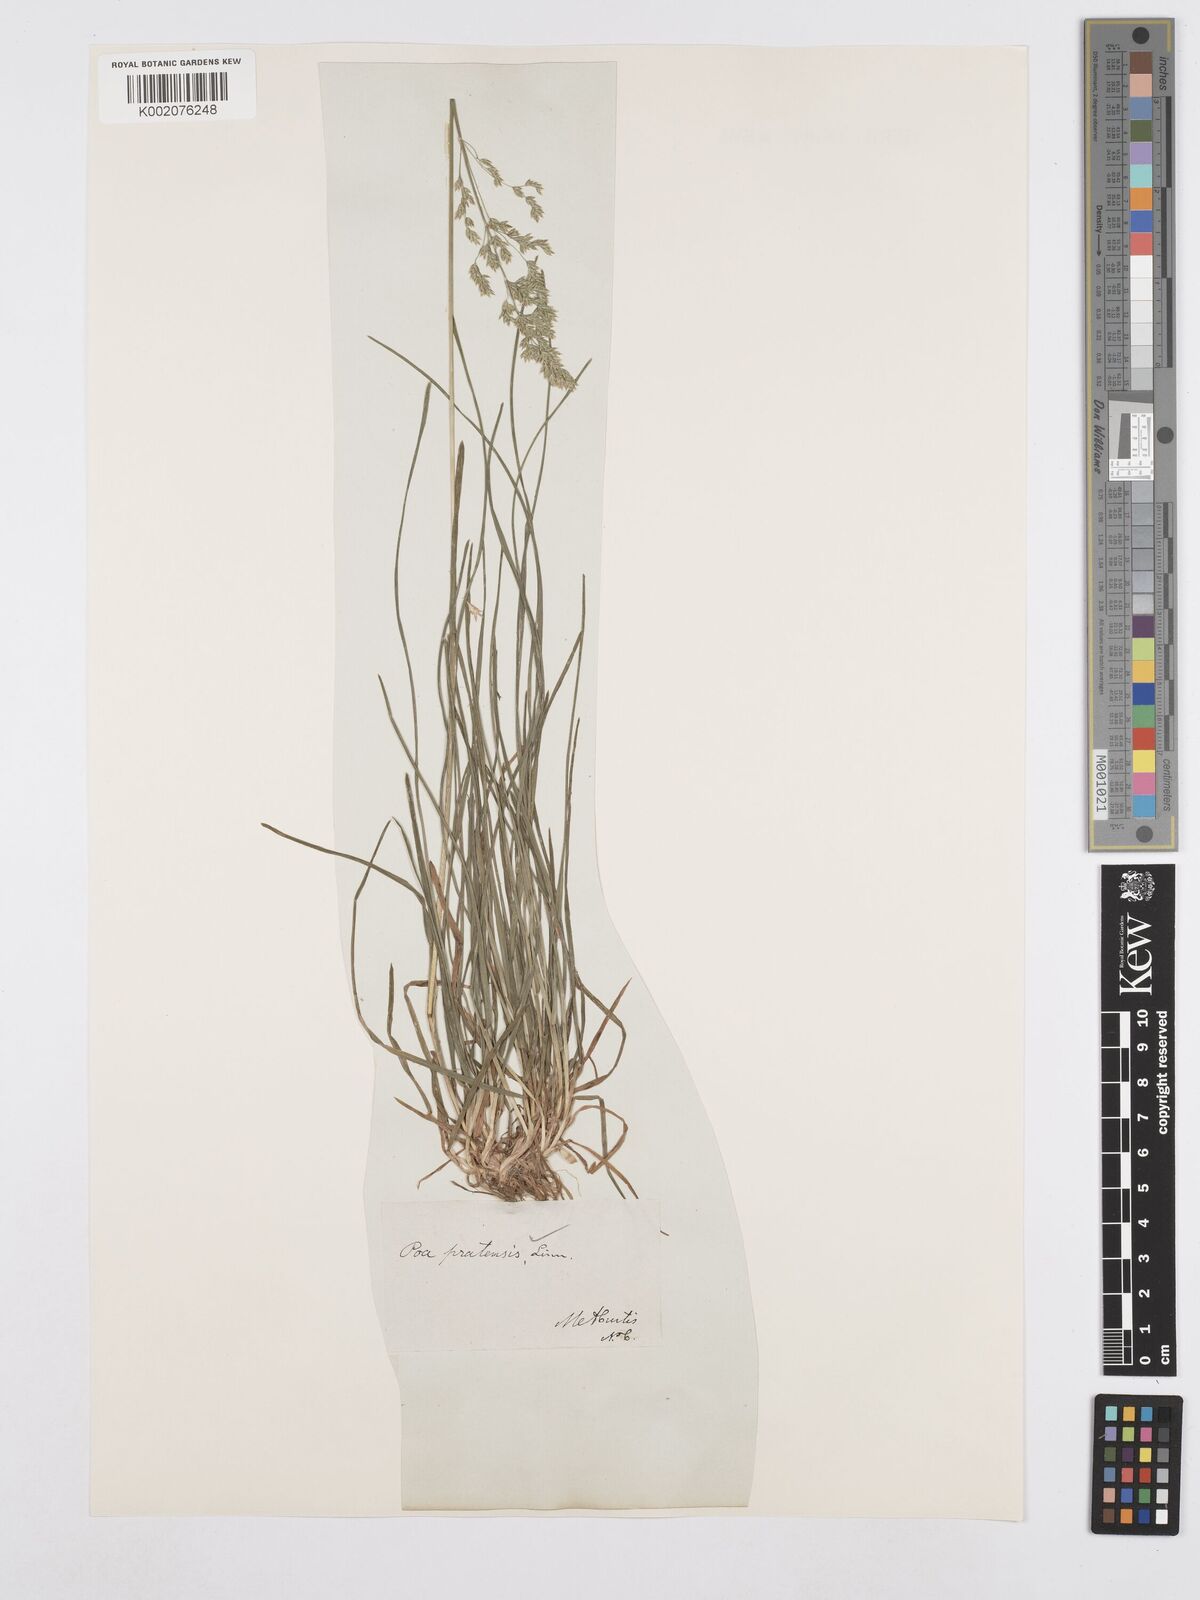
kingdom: Plantae
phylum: Tracheophyta
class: Liliopsida
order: Poales
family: Poaceae
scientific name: Poaceae
